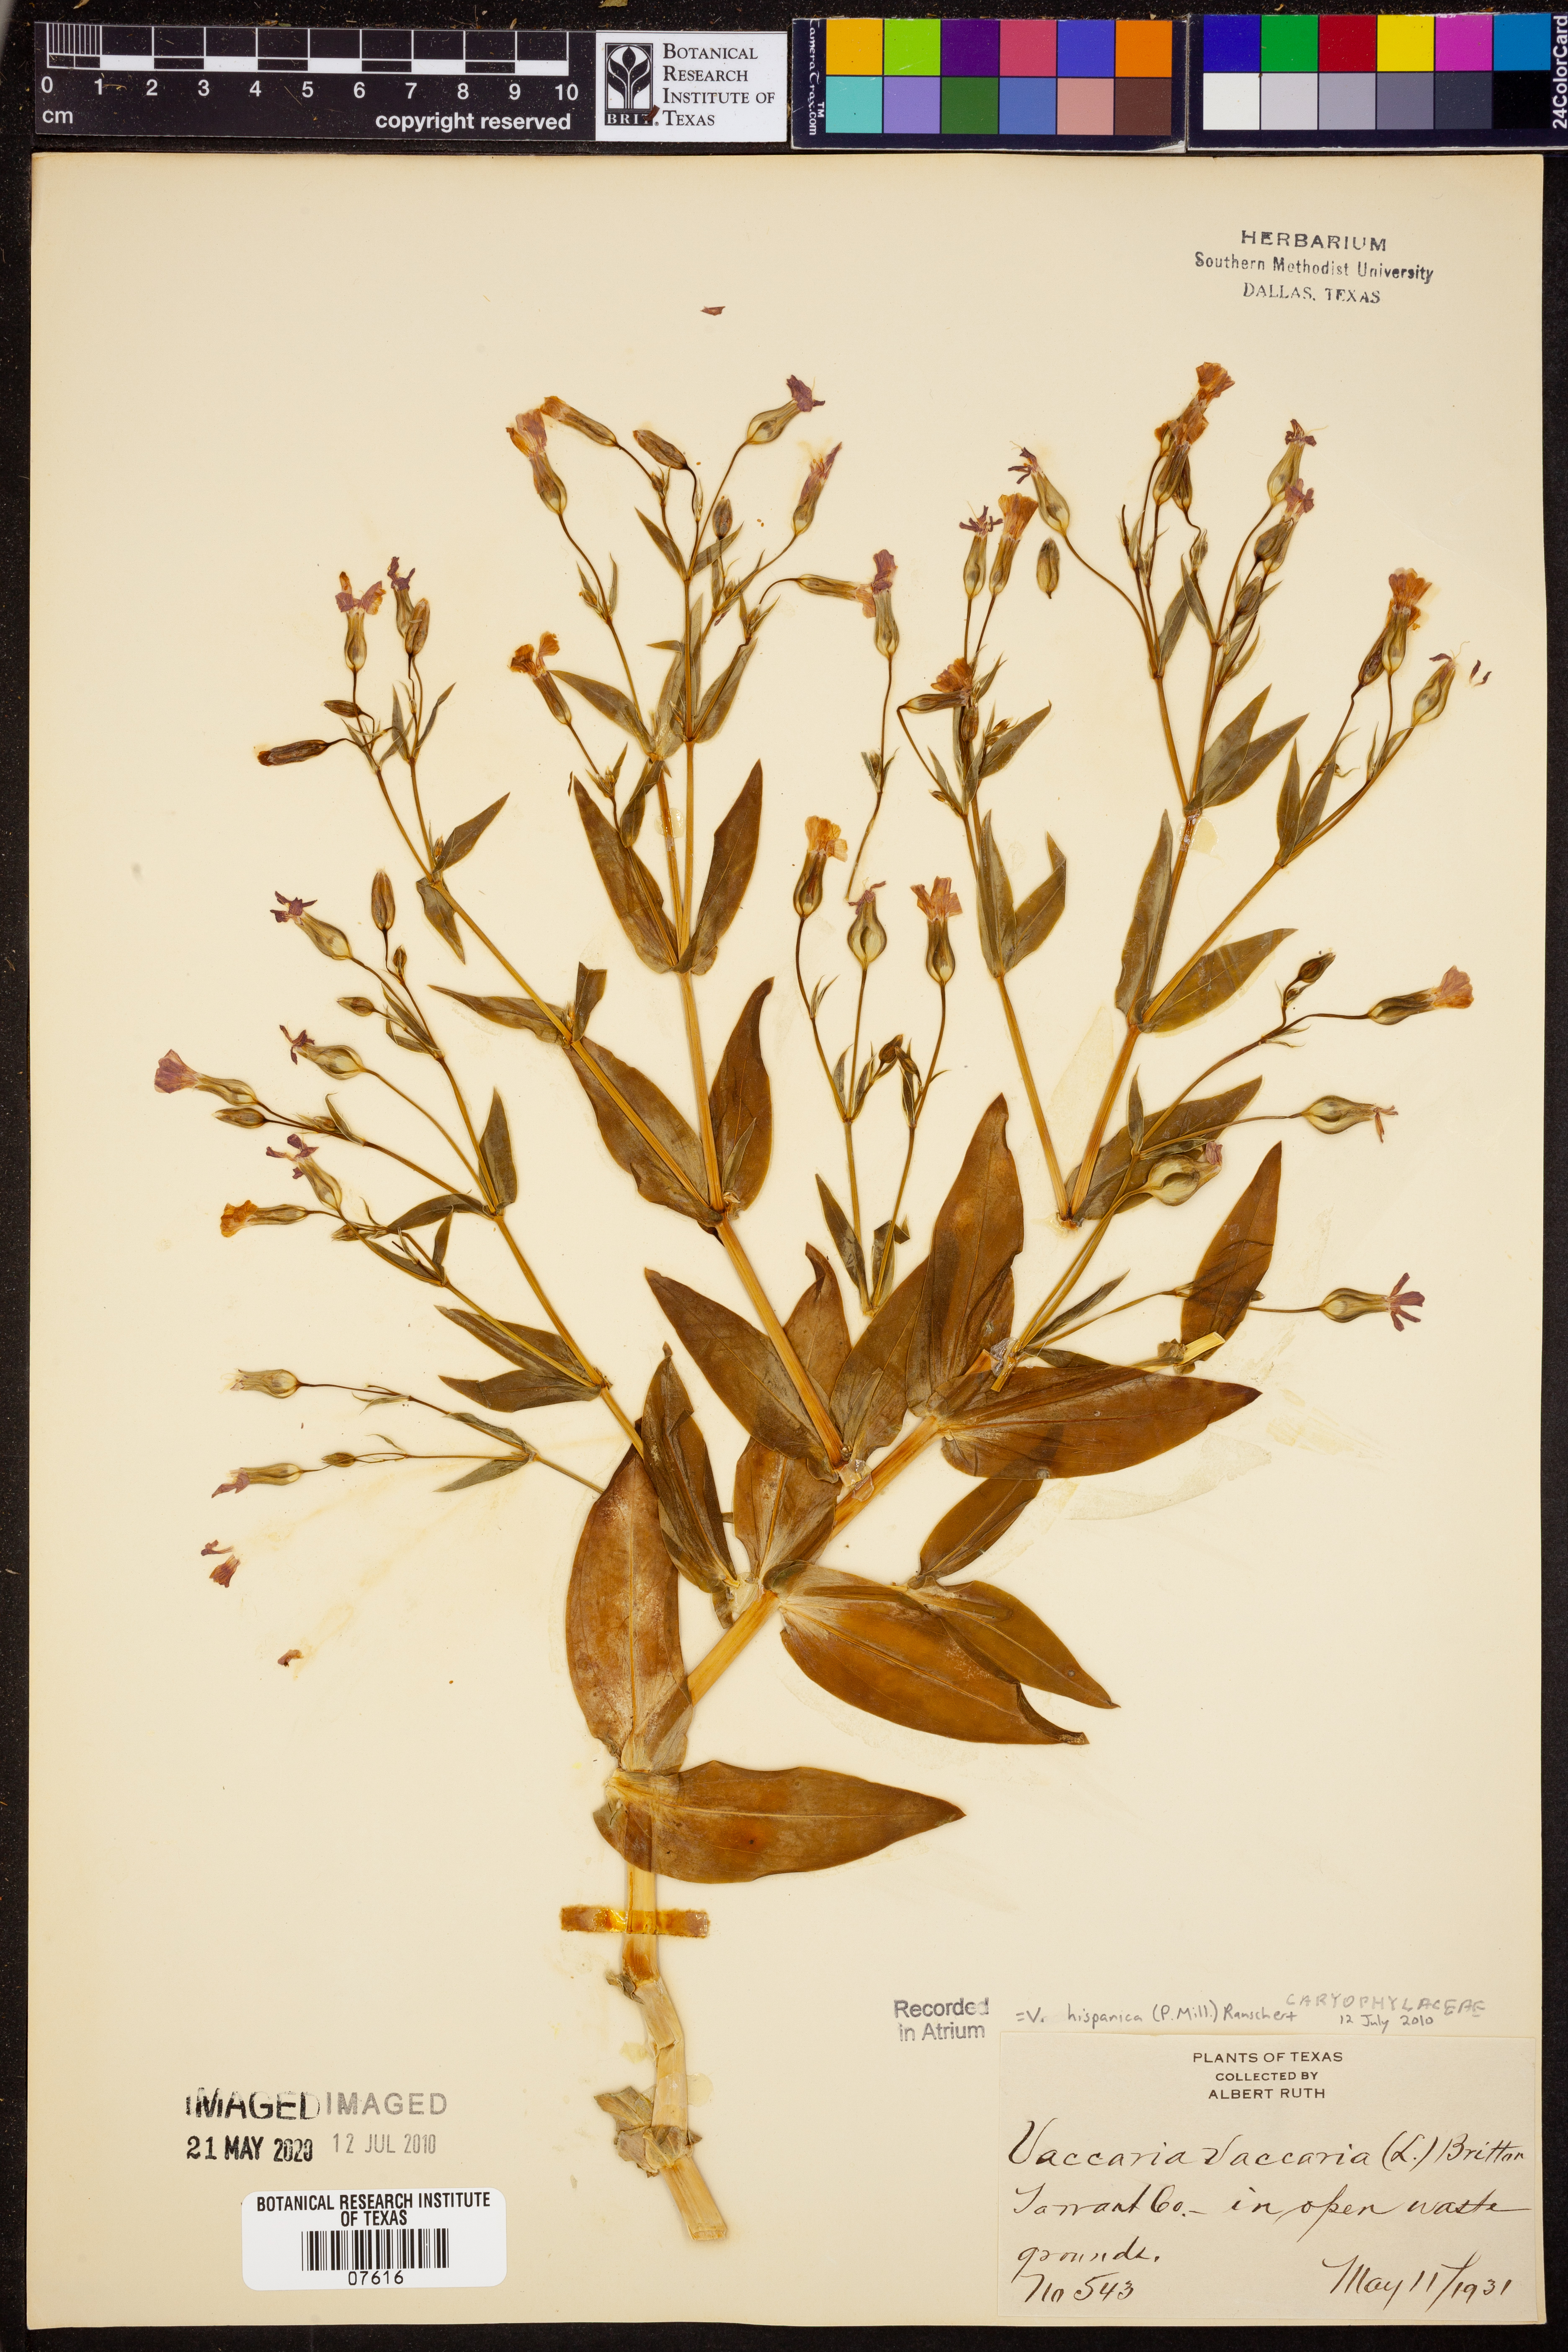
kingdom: Plantae
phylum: Tracheophyta
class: Magnoliopsida
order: Caryophyllales
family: Caryophyllaceae
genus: Gypsophila
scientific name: Gypsophila vaccaria
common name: Cow soapwort
